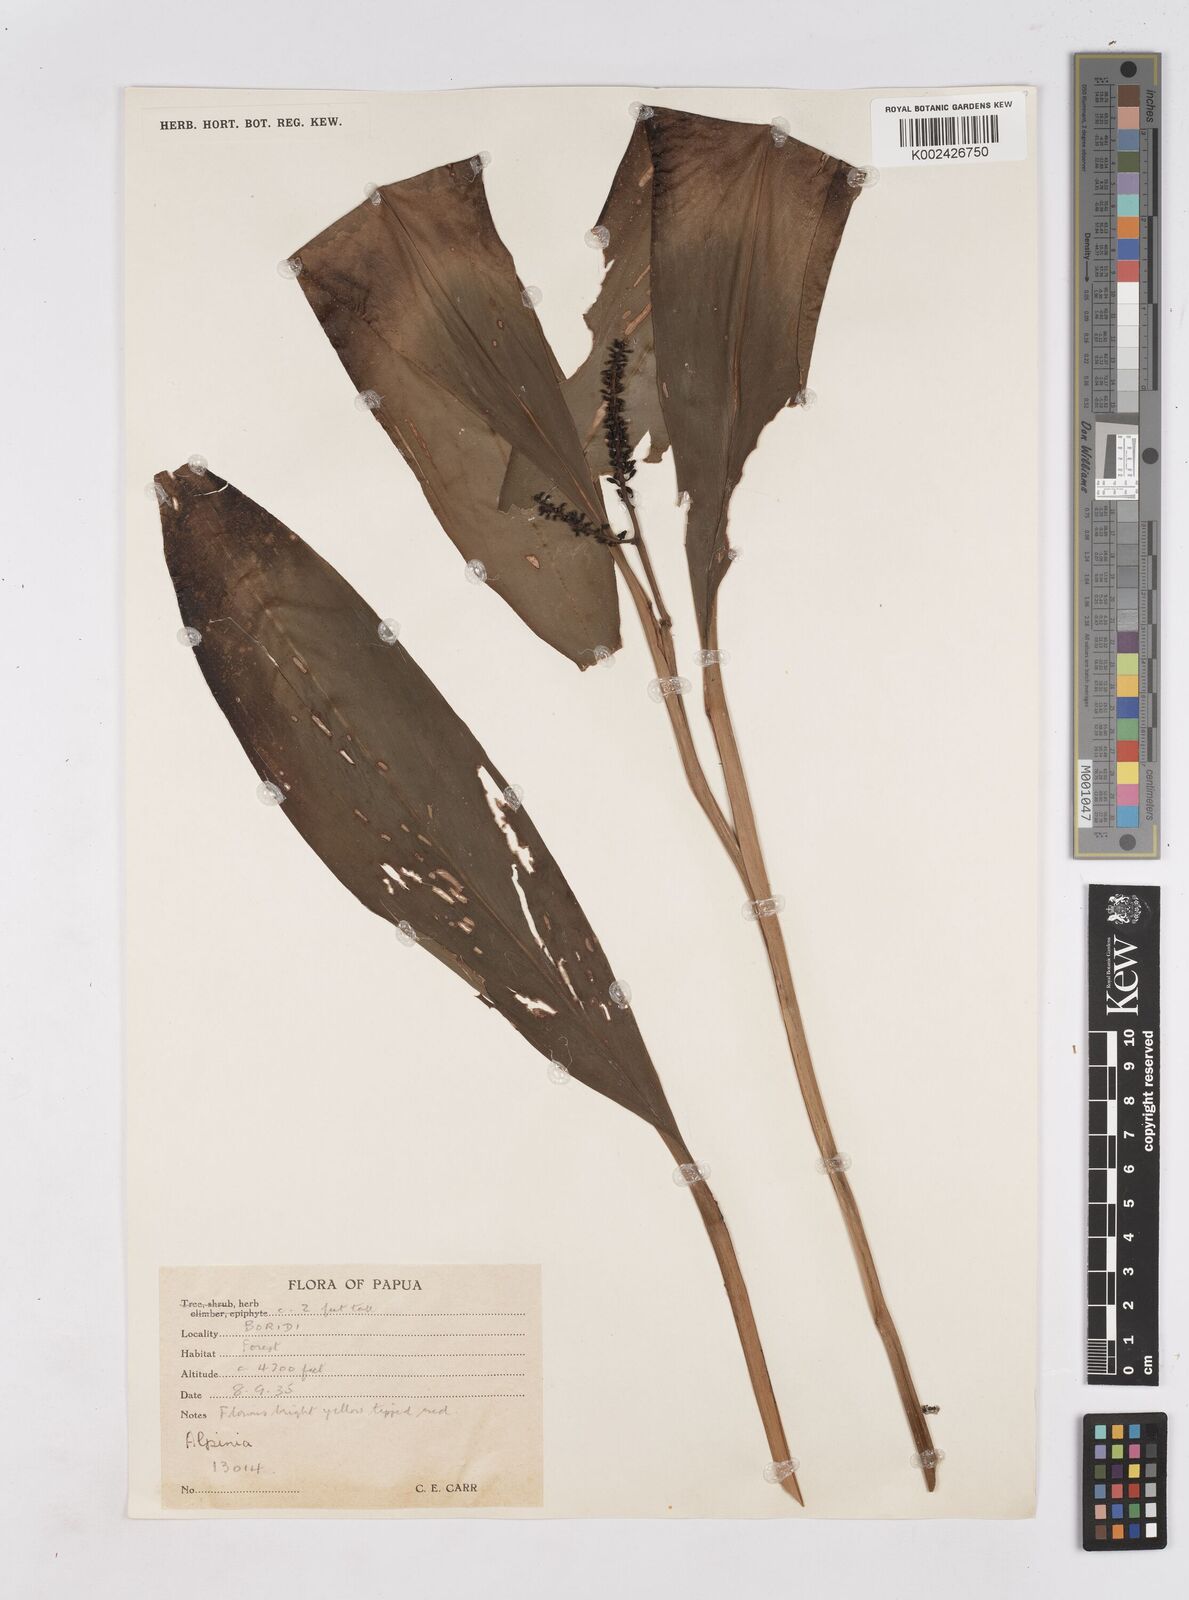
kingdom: Plantae
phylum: Tracheophyta
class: Liliopsida
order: Zingiberales
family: Zingiberaceae
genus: Riedelia
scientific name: Riedelia
